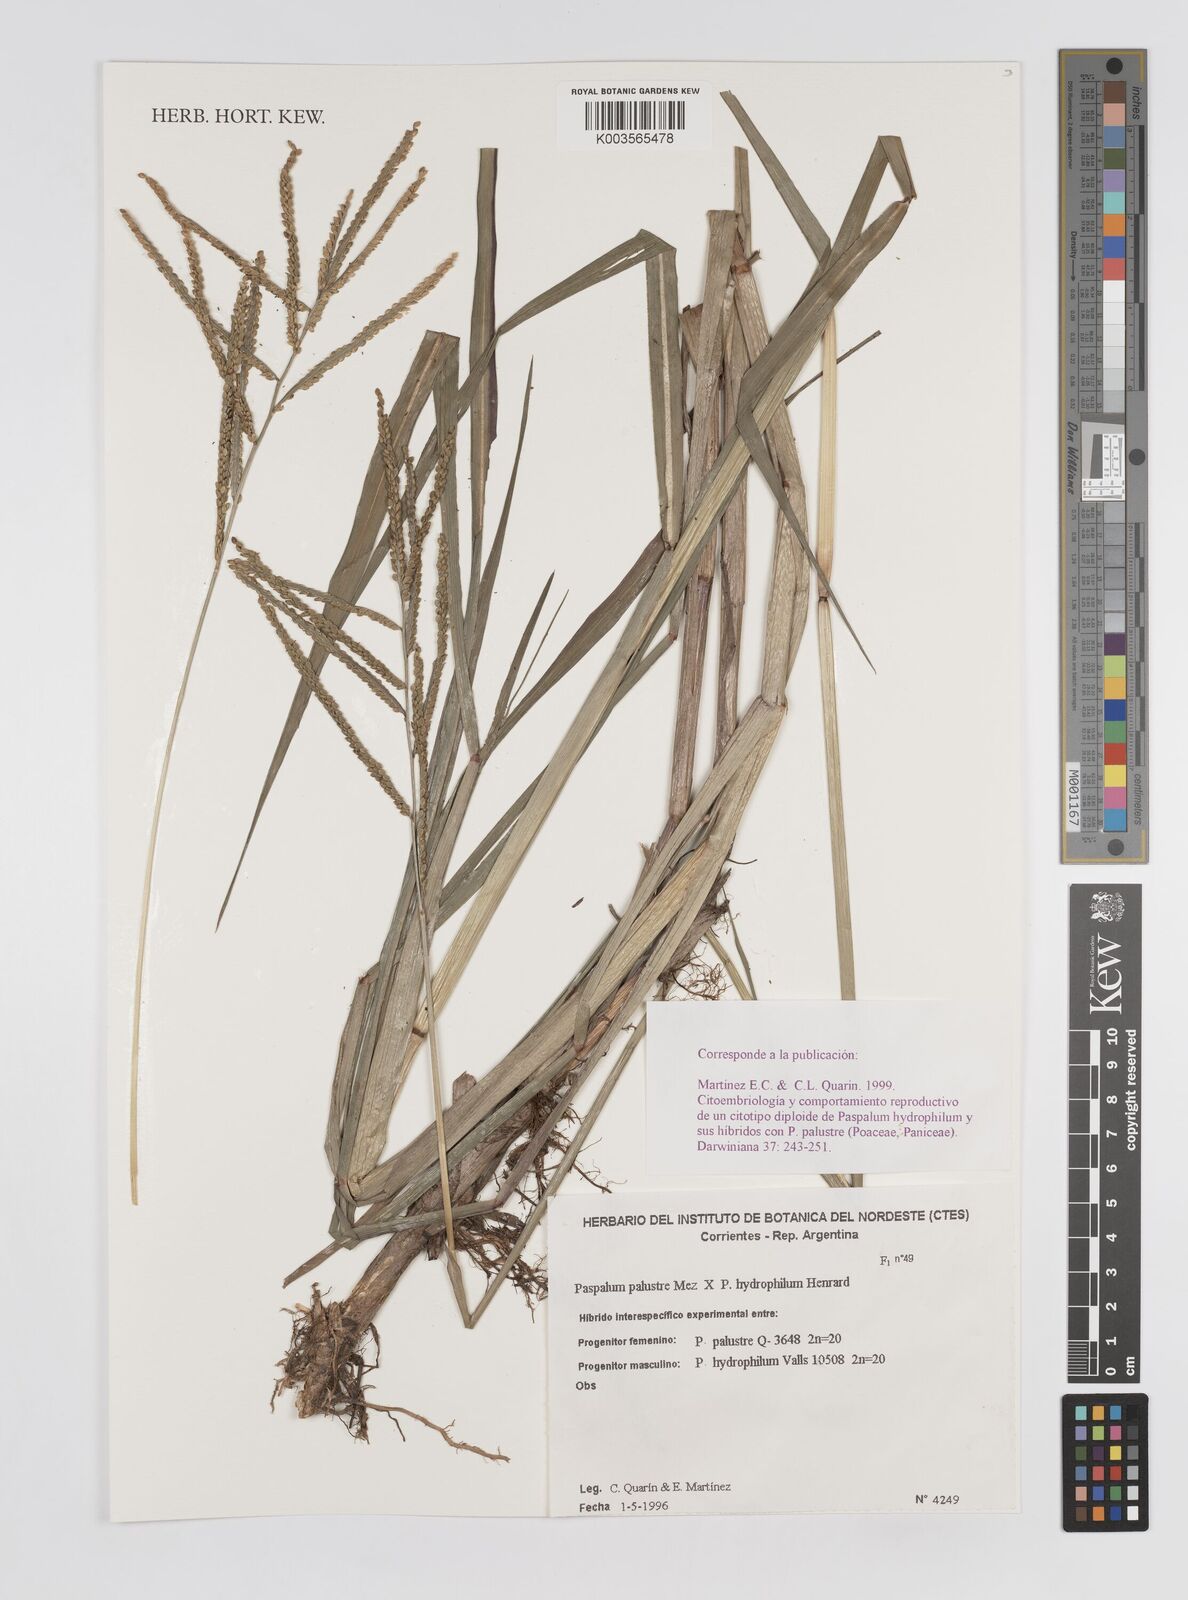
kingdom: Plantae
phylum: Tracheophyta
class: Liliopsida
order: Poales
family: Poaceae
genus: Paspalum
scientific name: Paspalum wrightii
